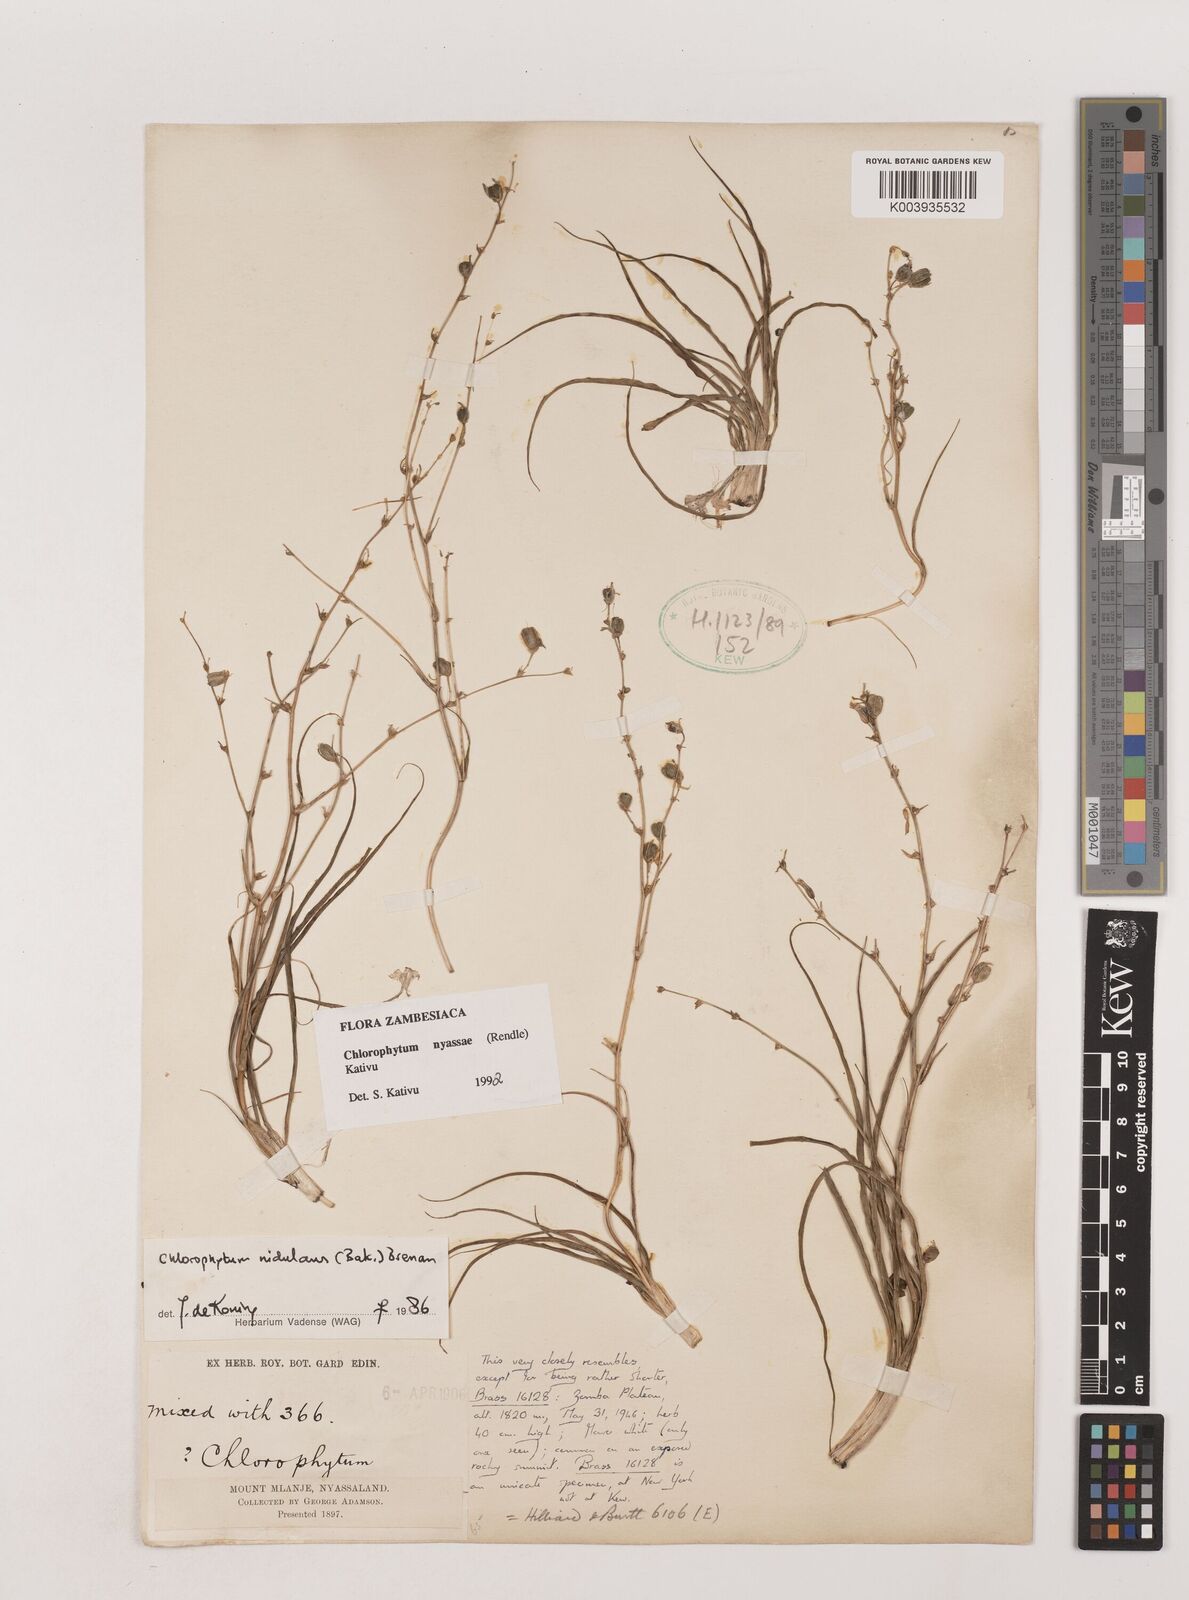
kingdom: Plantae
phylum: Tracheophyta
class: Liliopsida
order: Asparagales
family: Asparagaceae
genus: Chlorophytum
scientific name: Chlorophytum nyasae
